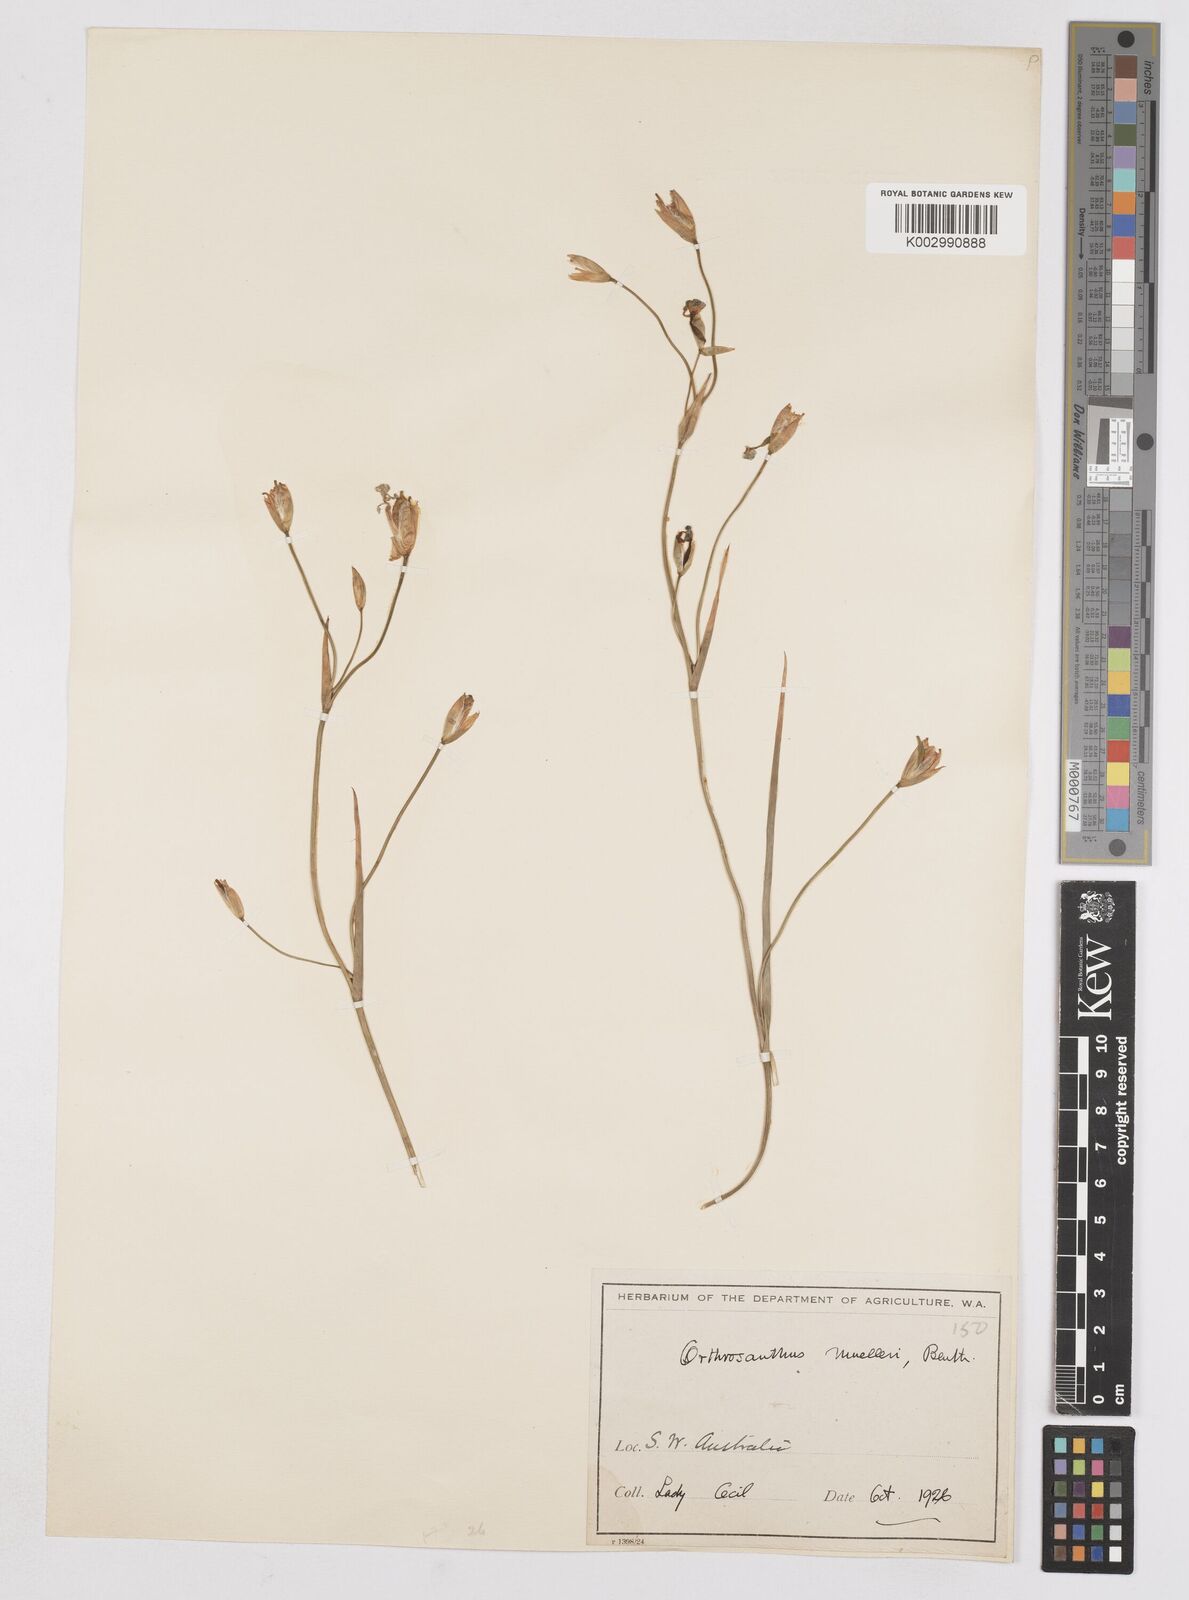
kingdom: Plantae
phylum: Tracheophyta
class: Liliopsida
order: Asparagales
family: Iridaceae
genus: Orthrosanthus
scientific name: Orthrosanthus muelleri
